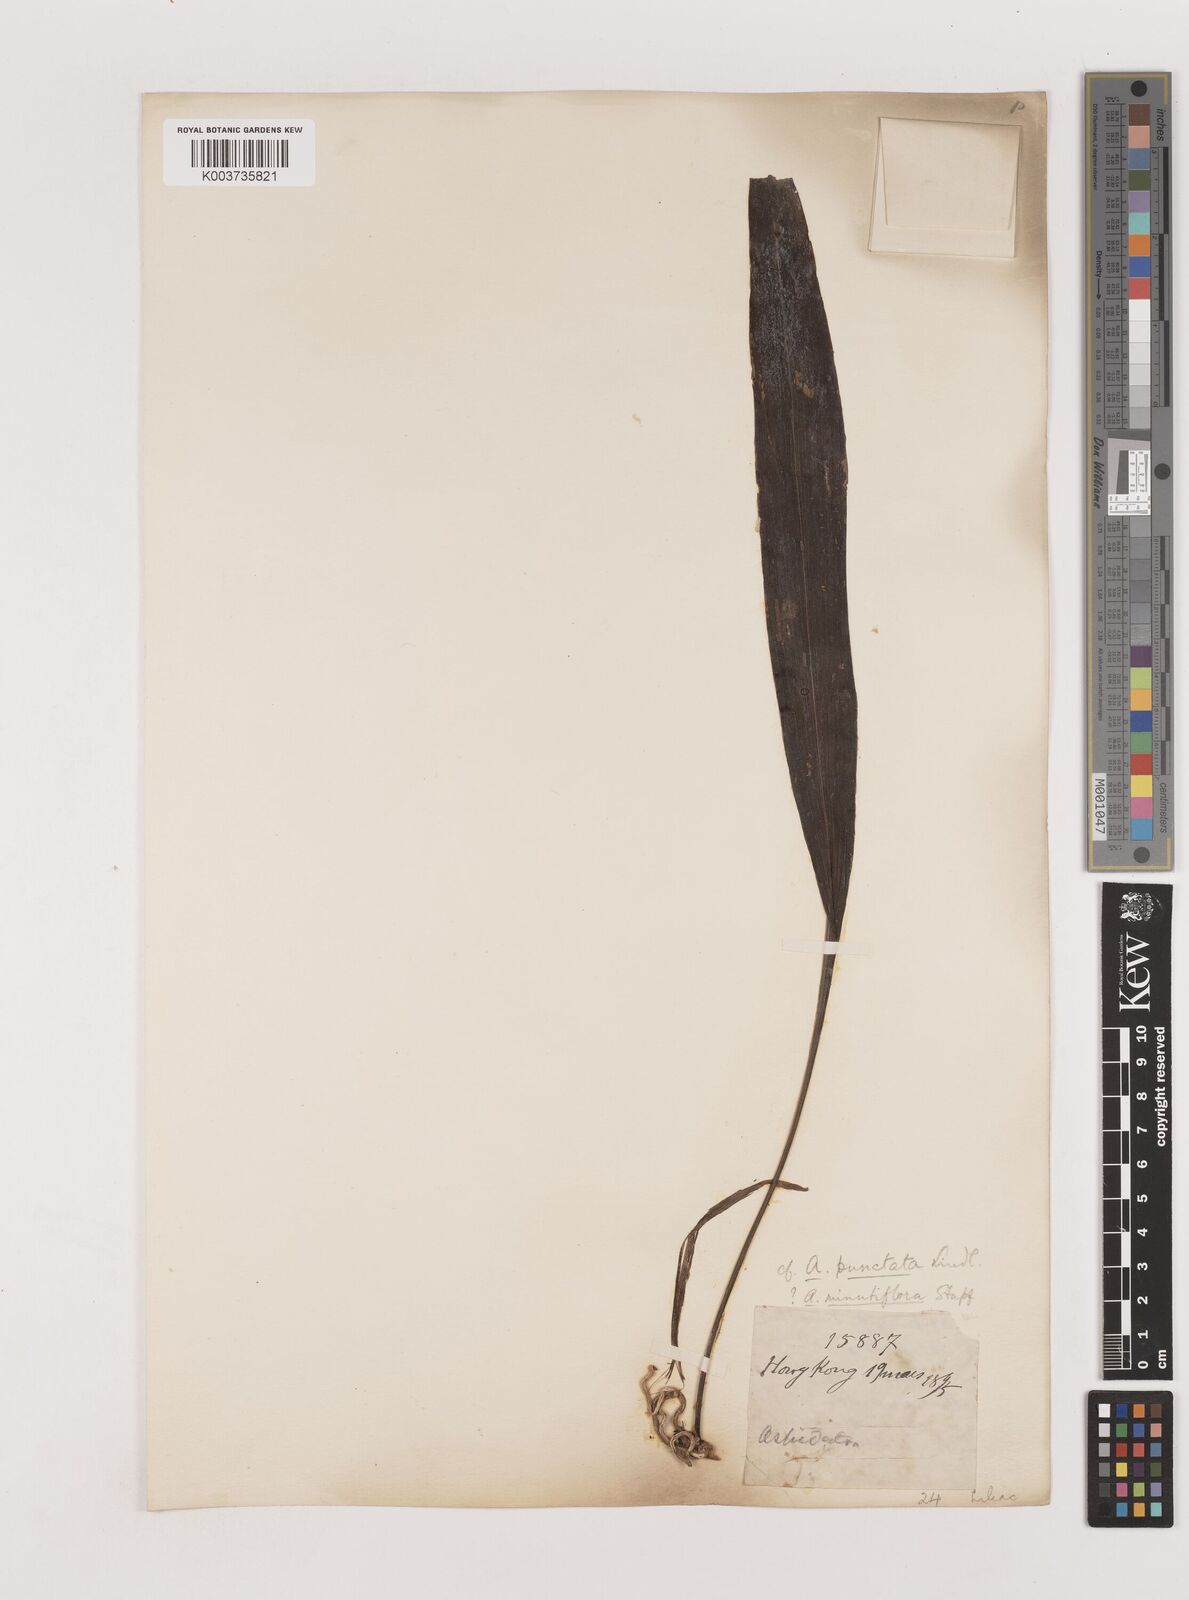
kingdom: Plantae
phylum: Tracheophyta
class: Liliopsida
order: Asparagales
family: Asparagaceae
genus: Aspidistra
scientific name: Aspidistra
